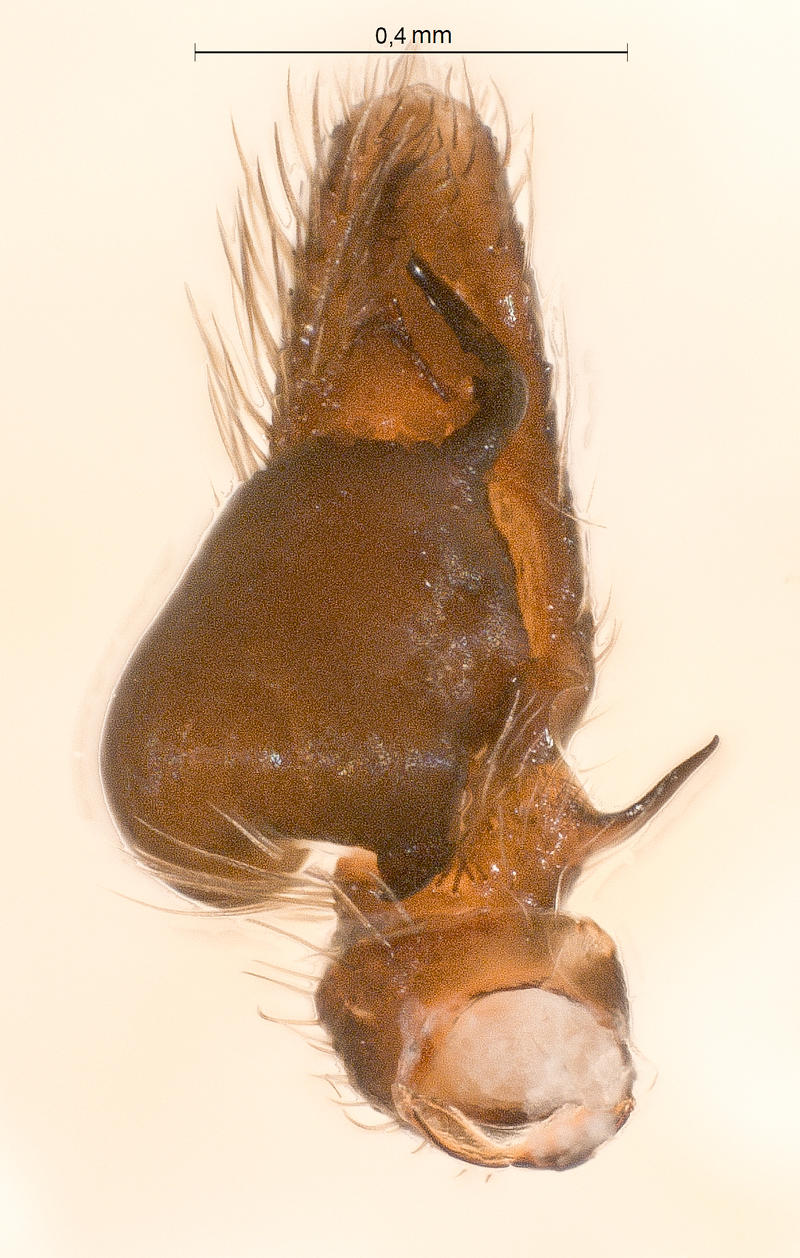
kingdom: Animalia
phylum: Arthropoda
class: Arachnida
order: Araneae
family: Salticidae
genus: Heliophanus
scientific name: Heliophanus cupreus
